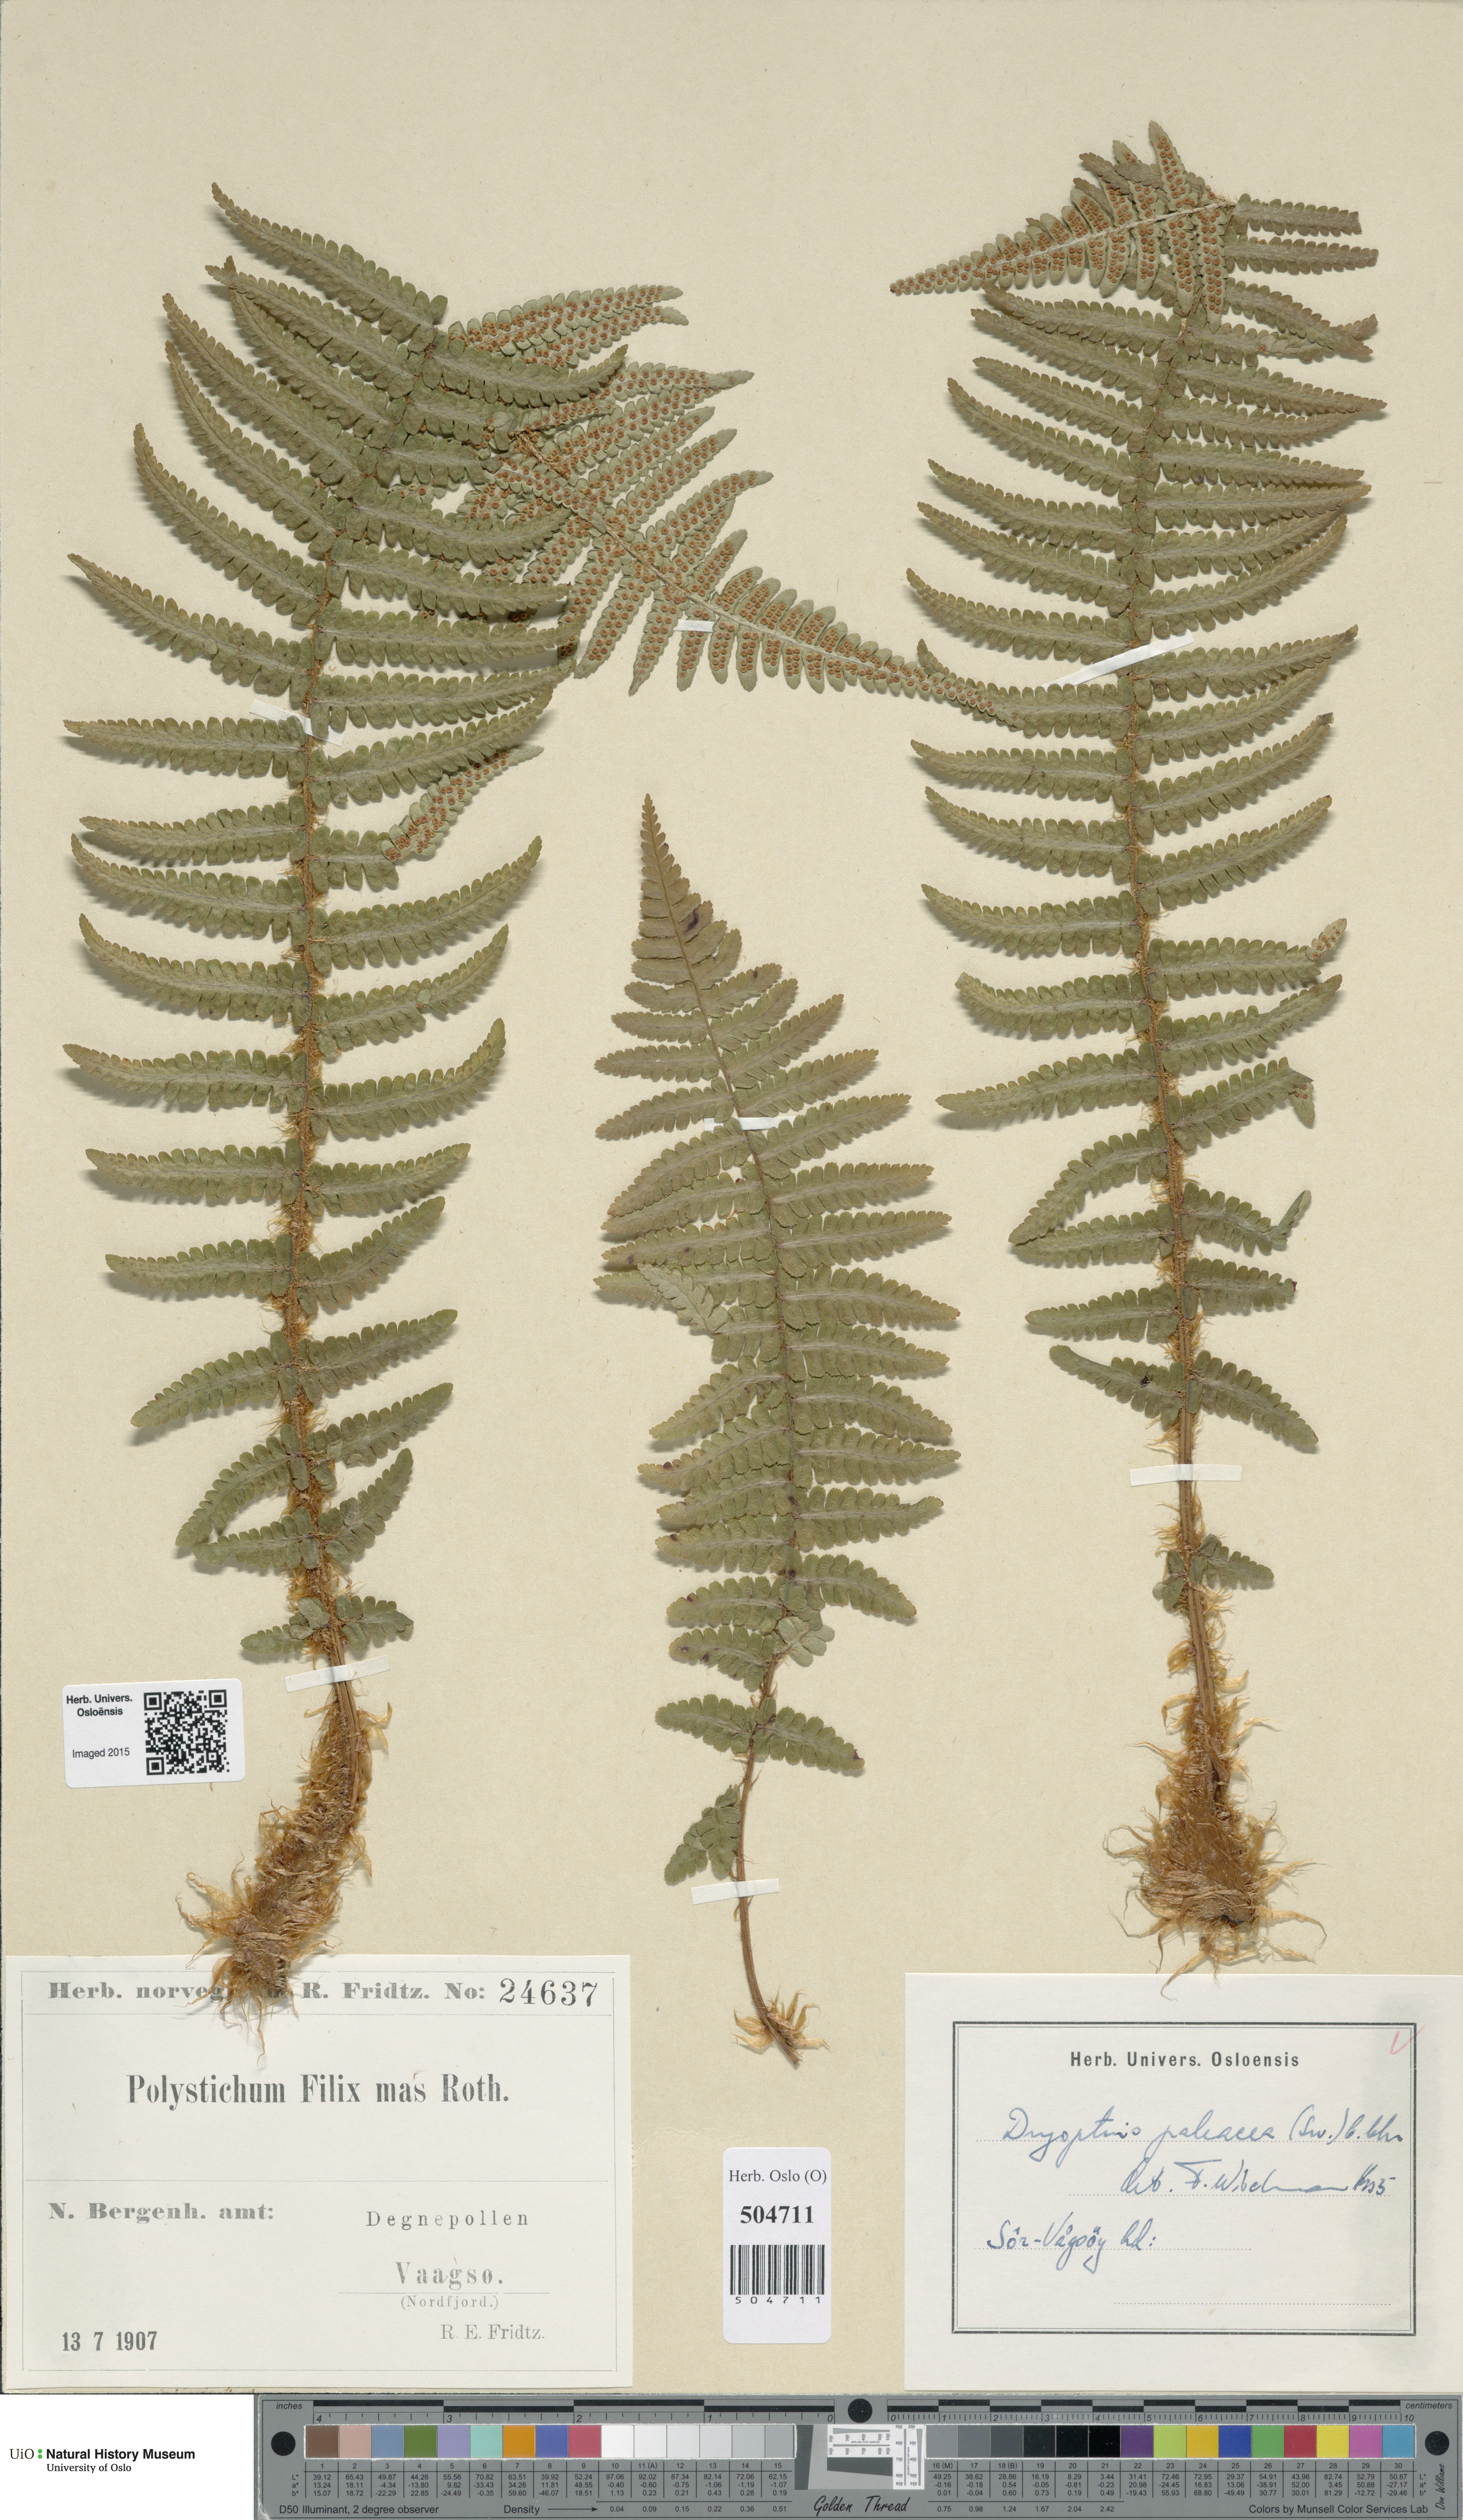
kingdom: Plantae
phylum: Tracheophyta
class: Polypodiopsida
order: Polypodiales
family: Dryopteridaceae
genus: Dryopteris
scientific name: Dryopteris wallichiana
